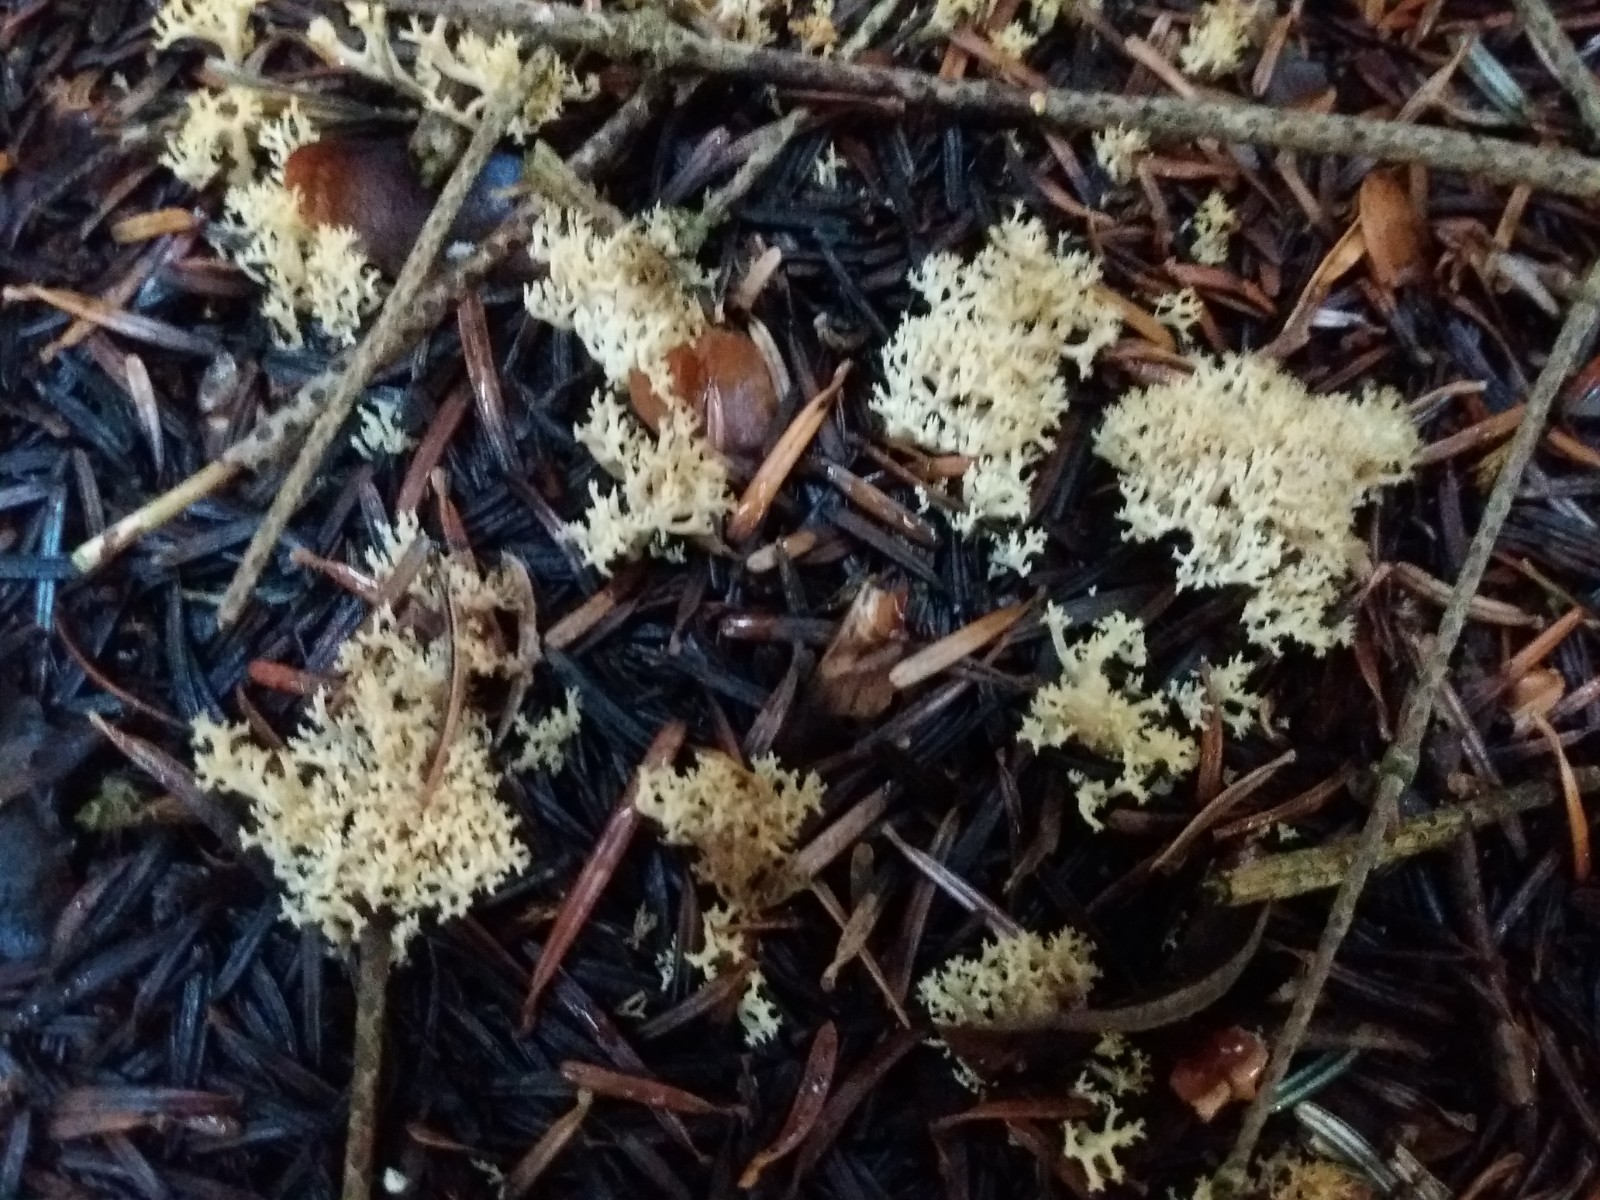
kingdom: Fungi
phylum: Basidiomycota
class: Agaricomycetes
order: Gomphales
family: Gomphaceae
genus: Phaeoclavulina
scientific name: Phaeoclavulina flaccida
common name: spinkel koralsvamp
